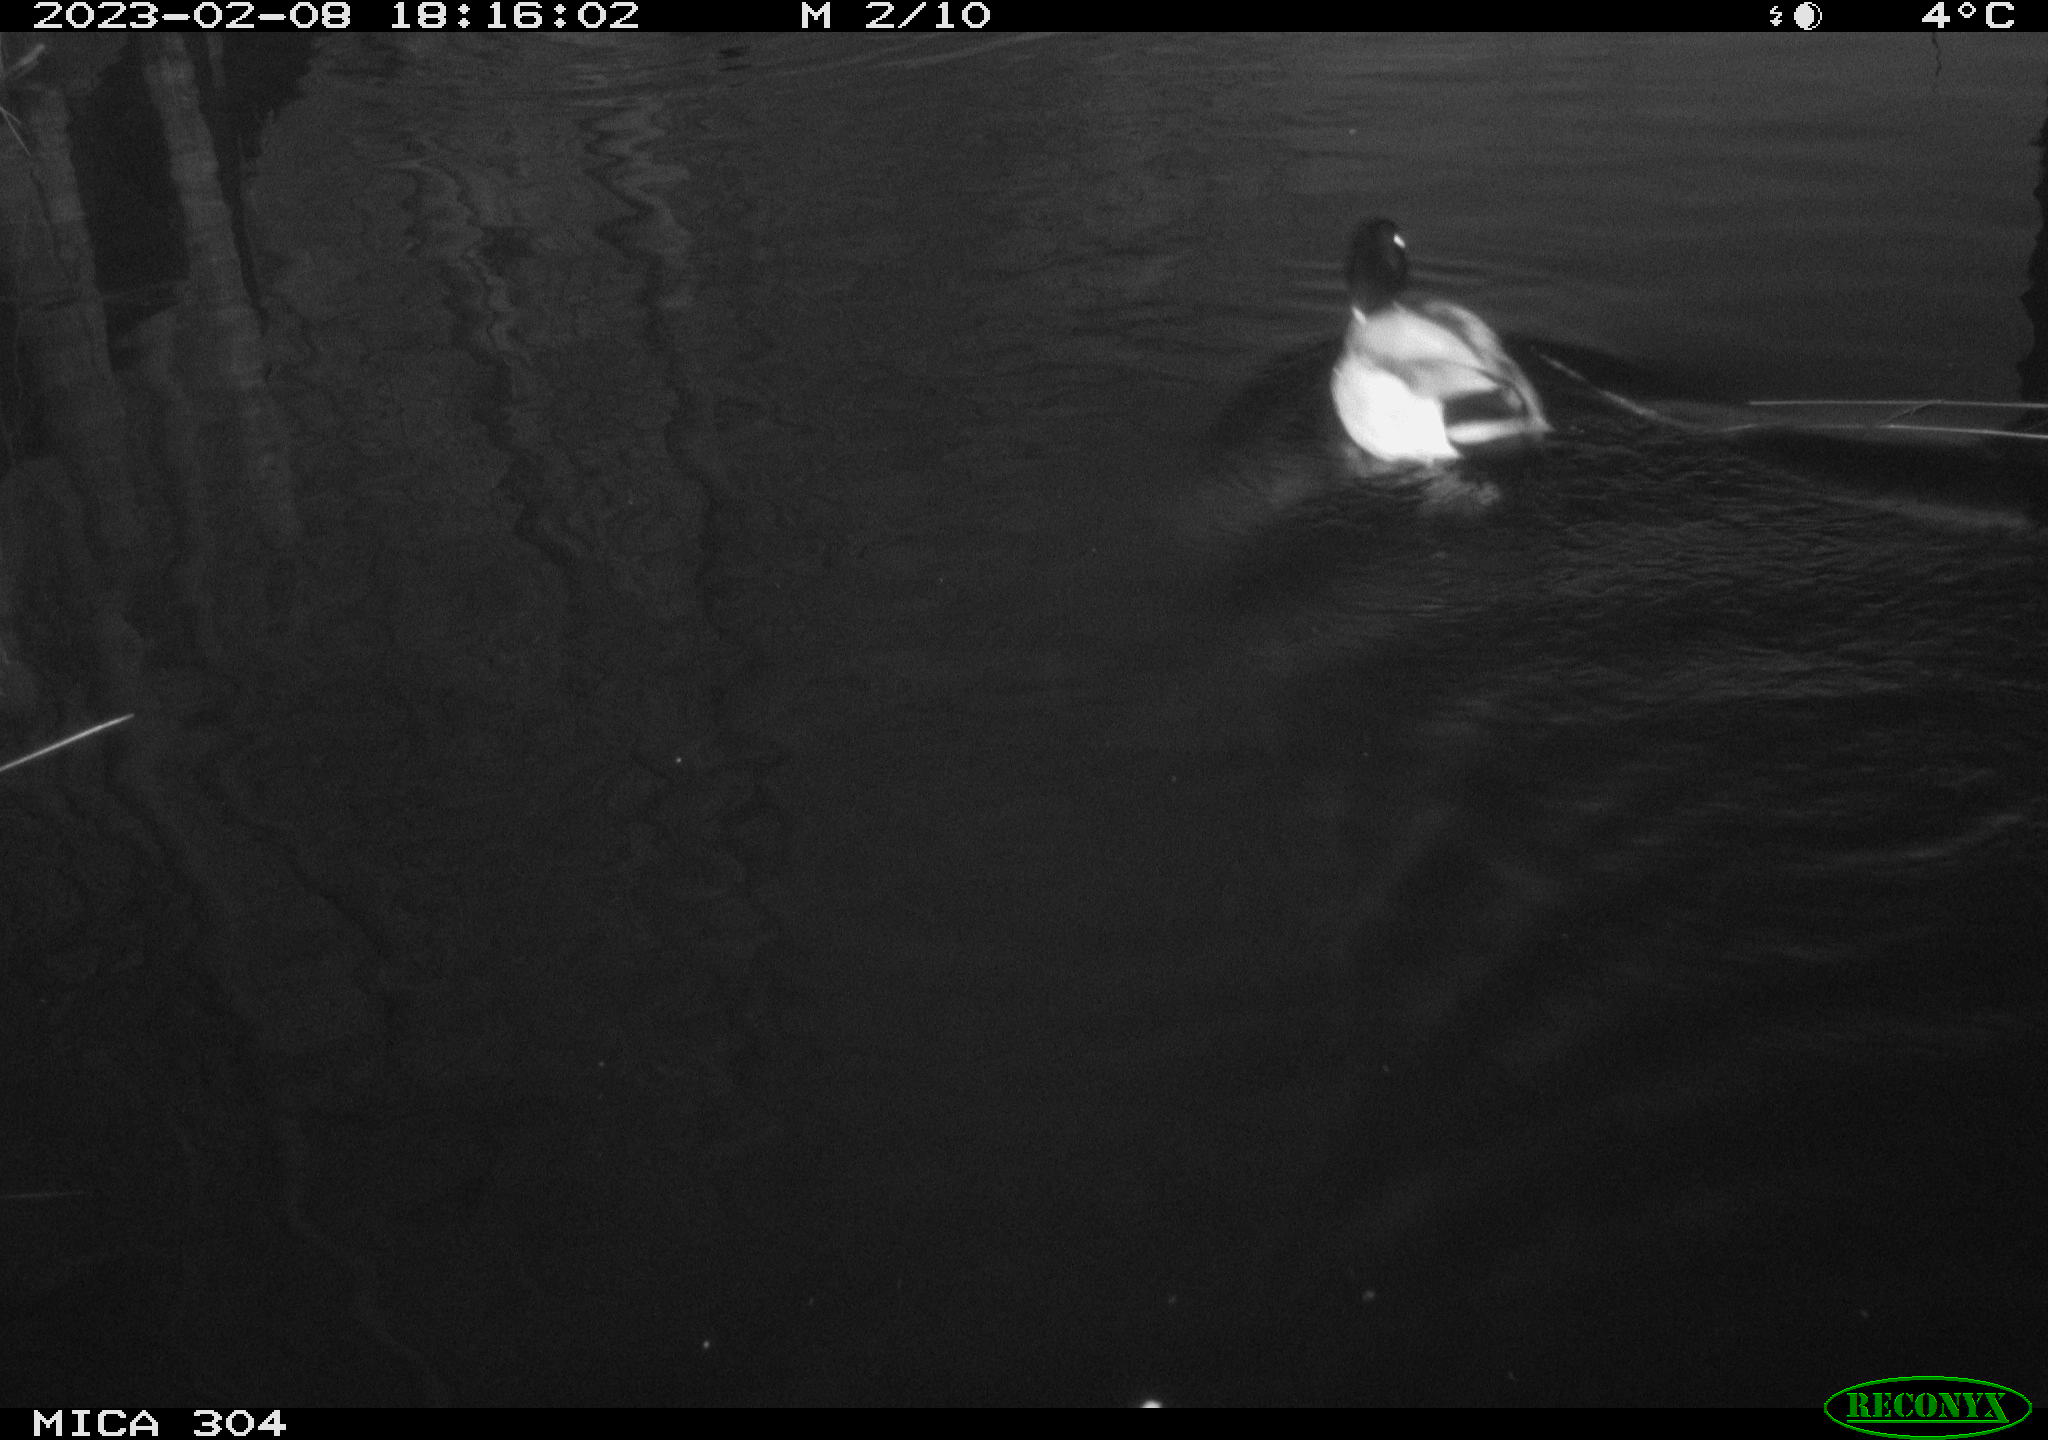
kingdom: Animalia
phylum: Chordata
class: Aves
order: Anseriformes
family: Anatidae
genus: Anas
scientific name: Anas
